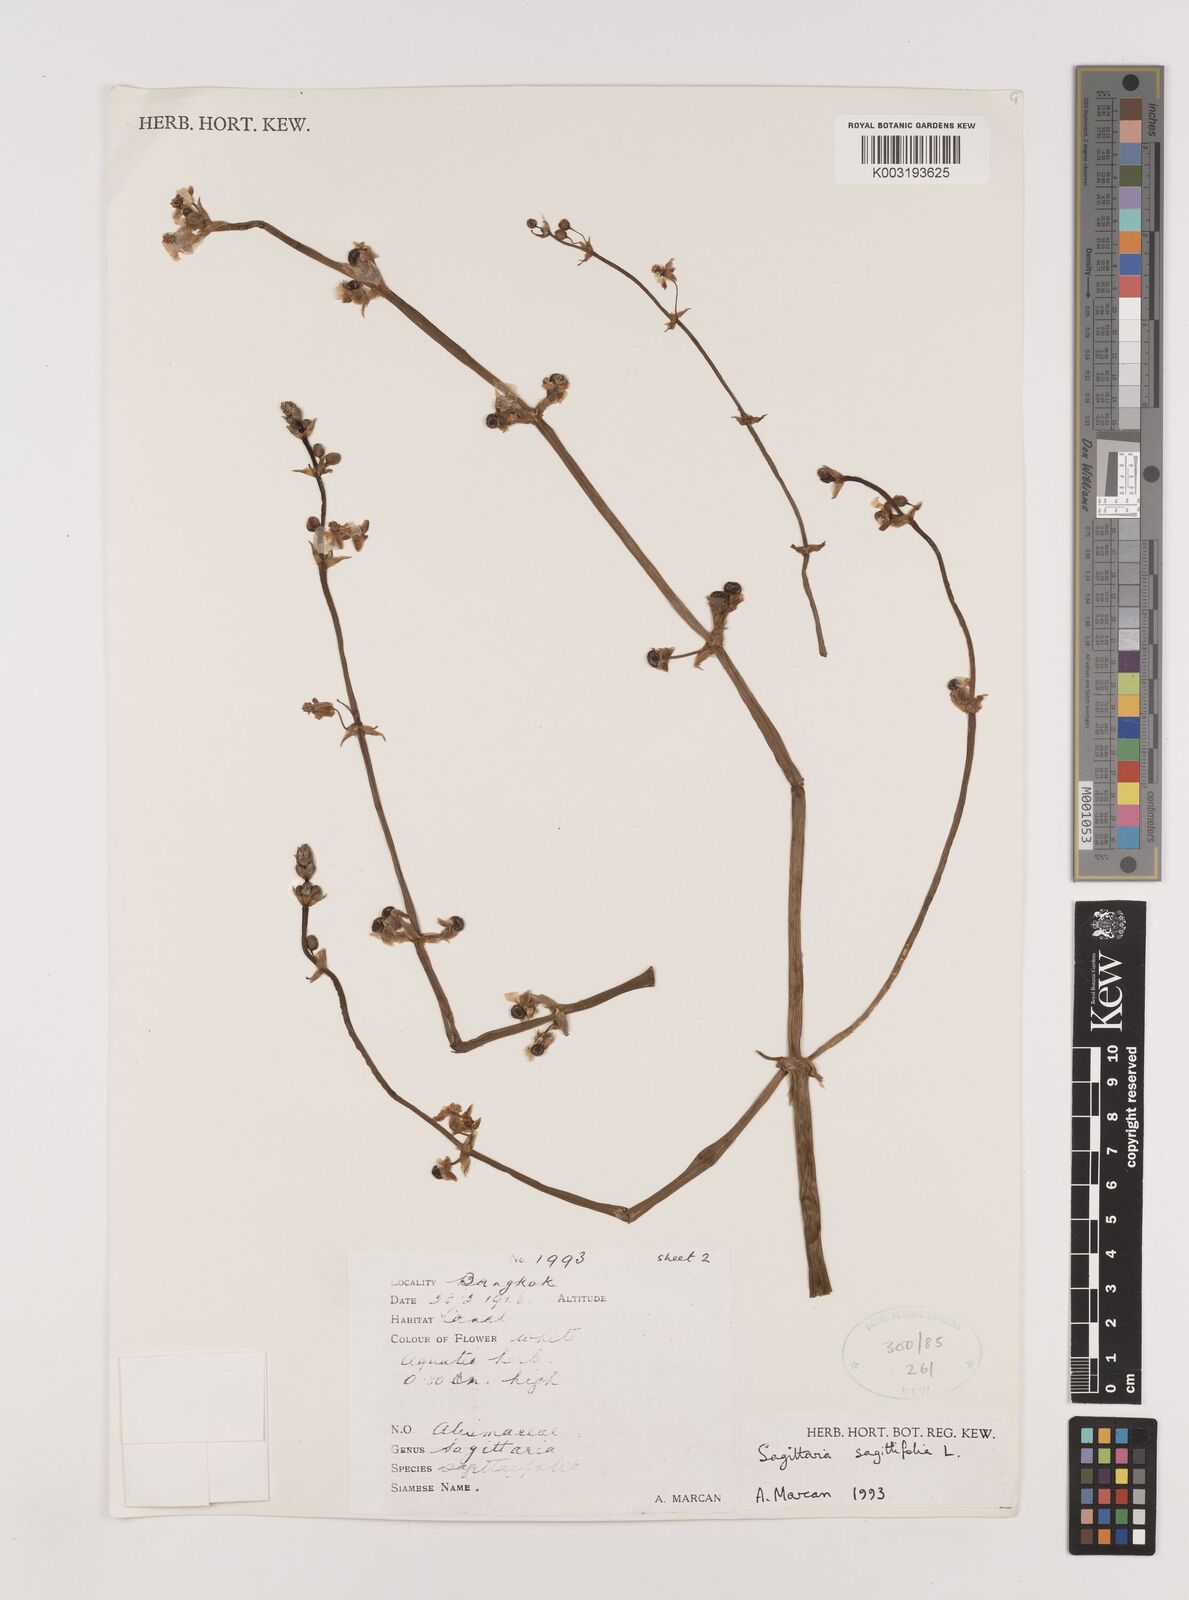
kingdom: Plantae
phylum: Tracheophyta
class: Liliopsida
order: Alismatales
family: Alismataceae
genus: Sagittaria
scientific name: Sagittaria sagittifolia
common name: Arrowhead
